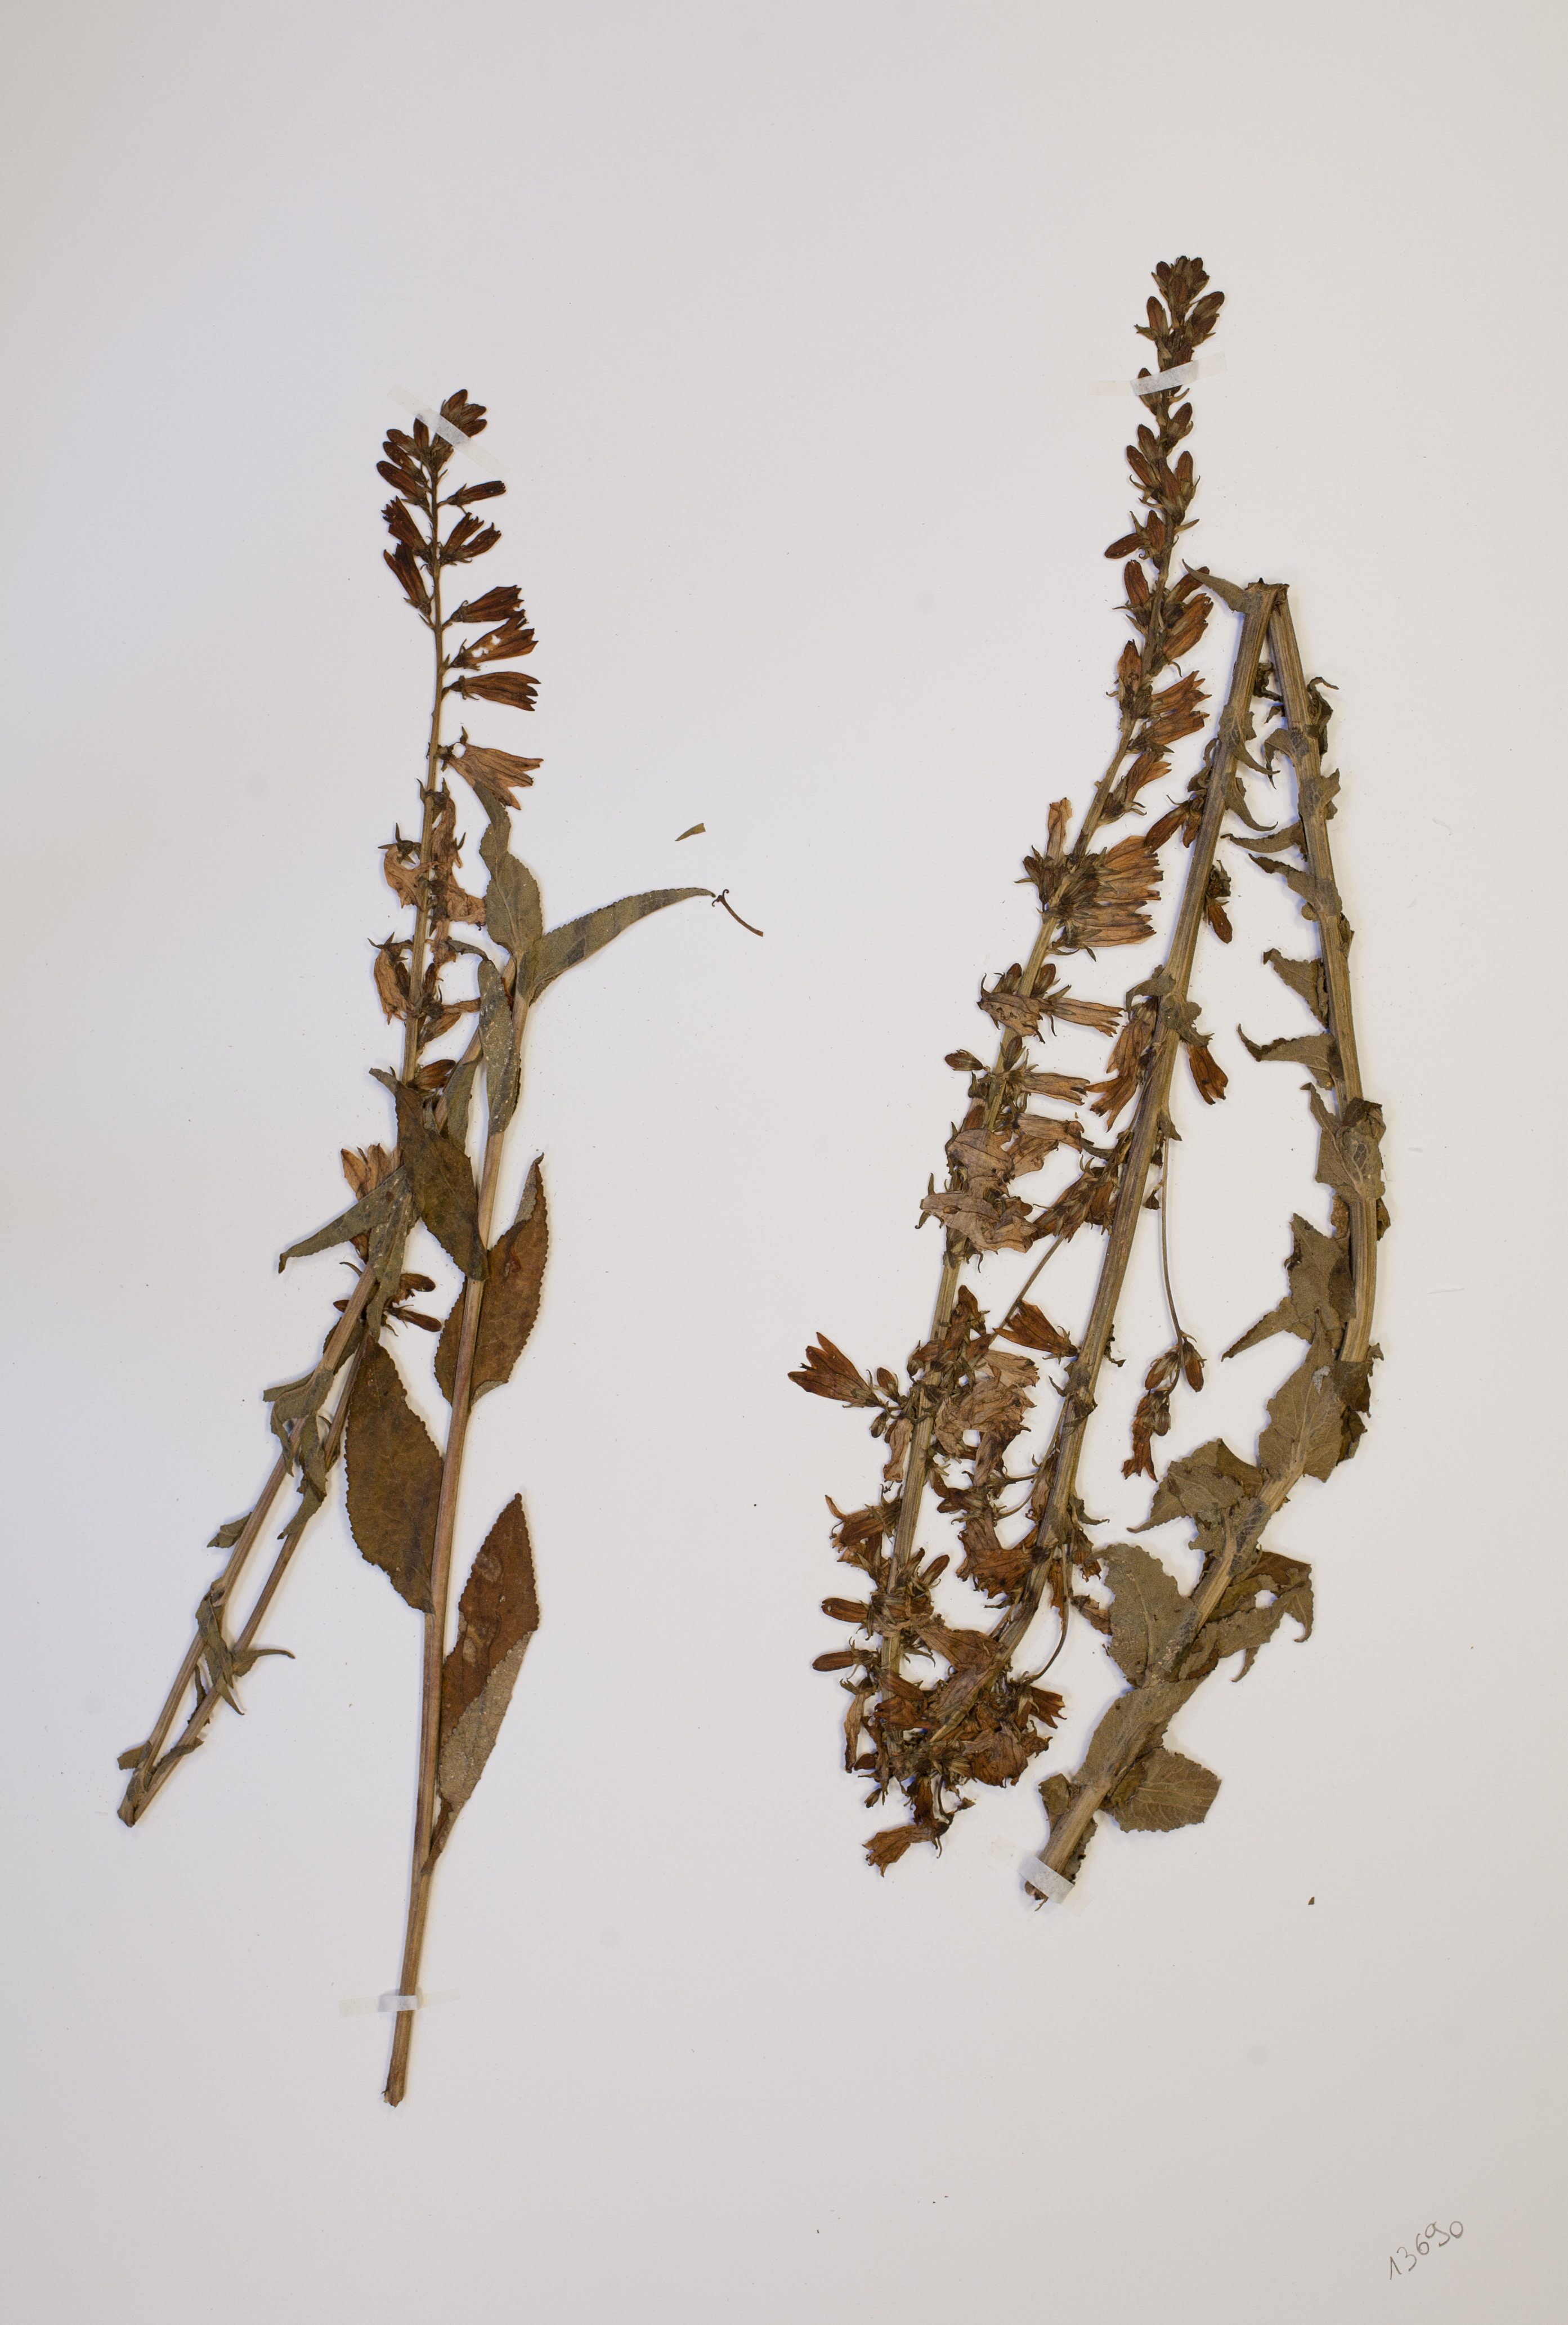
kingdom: Plantae
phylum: Tracheophyta
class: Magnoliopsida
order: Asterales
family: Campanulaceae
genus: Campanula
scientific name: Campanula bononiensis
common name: Pale bellflower
